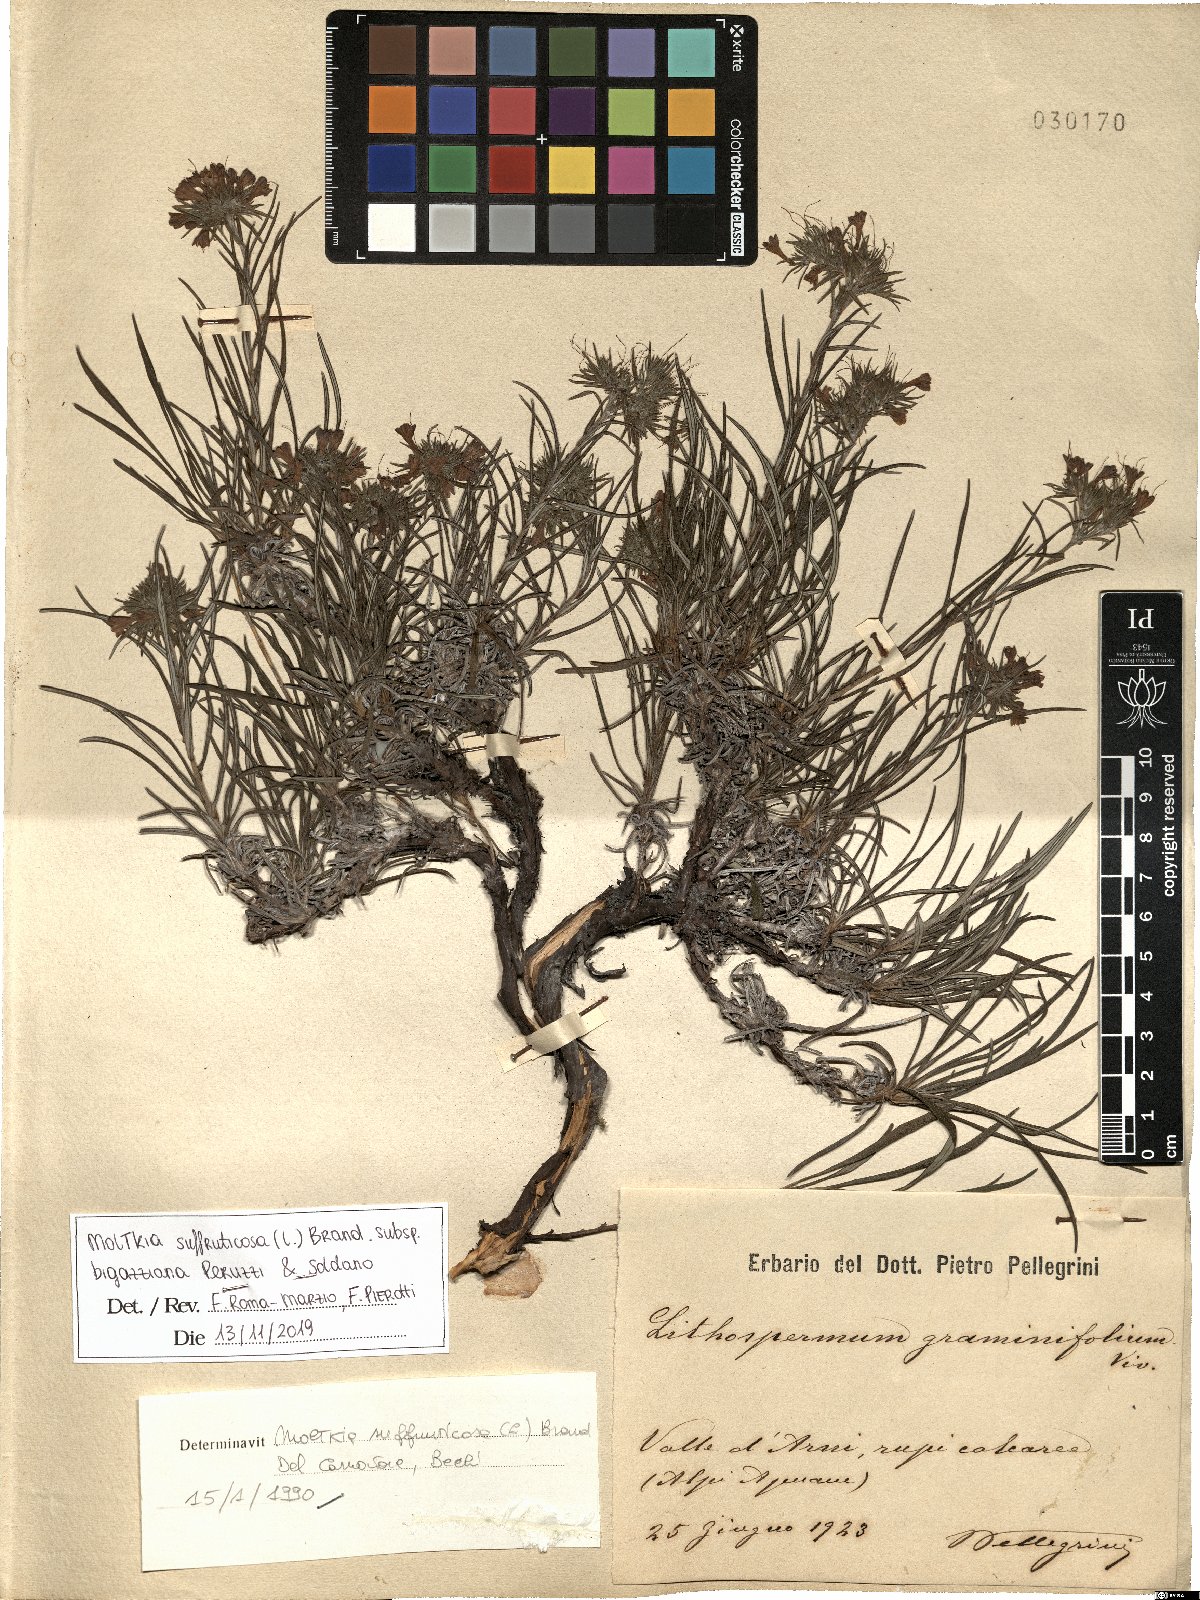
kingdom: Plantae
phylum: Tracheophyta
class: Magnoliopsida
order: Boraginales
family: Boraginaceae
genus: Moltkia
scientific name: Moltkia suffruticosa
